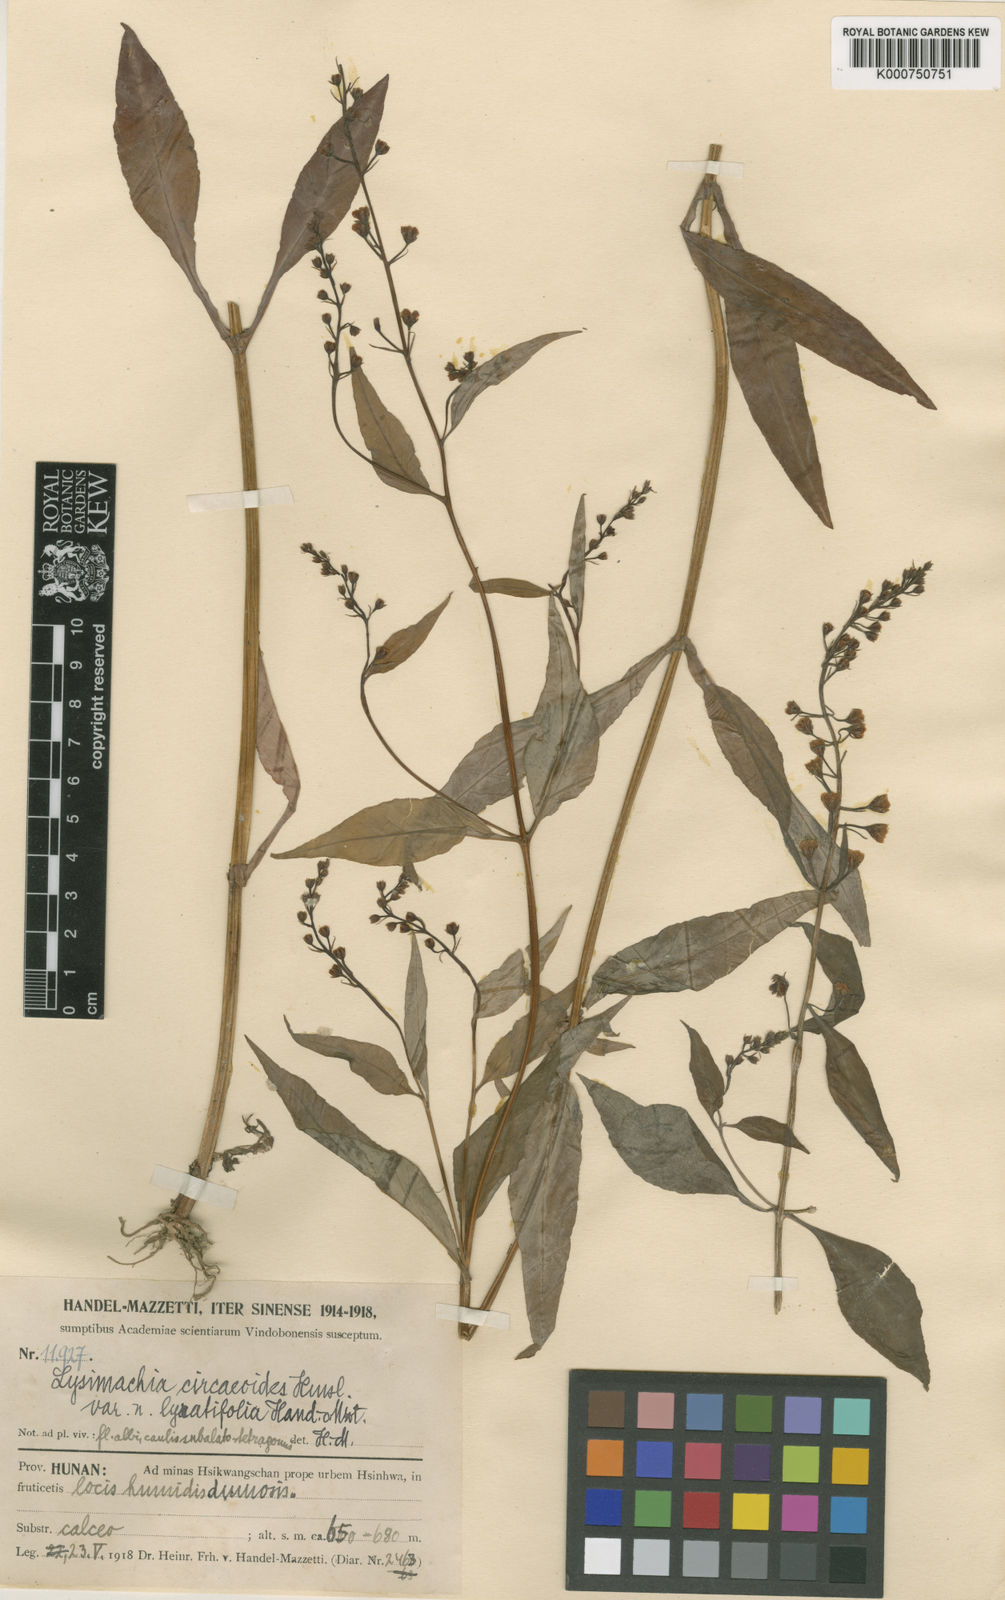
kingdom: Plantae
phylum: Tracheophyta
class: Magnoliopsida
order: Ericales
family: Primulaceae
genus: Lysimachia
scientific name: Lysimachia circaeoides
